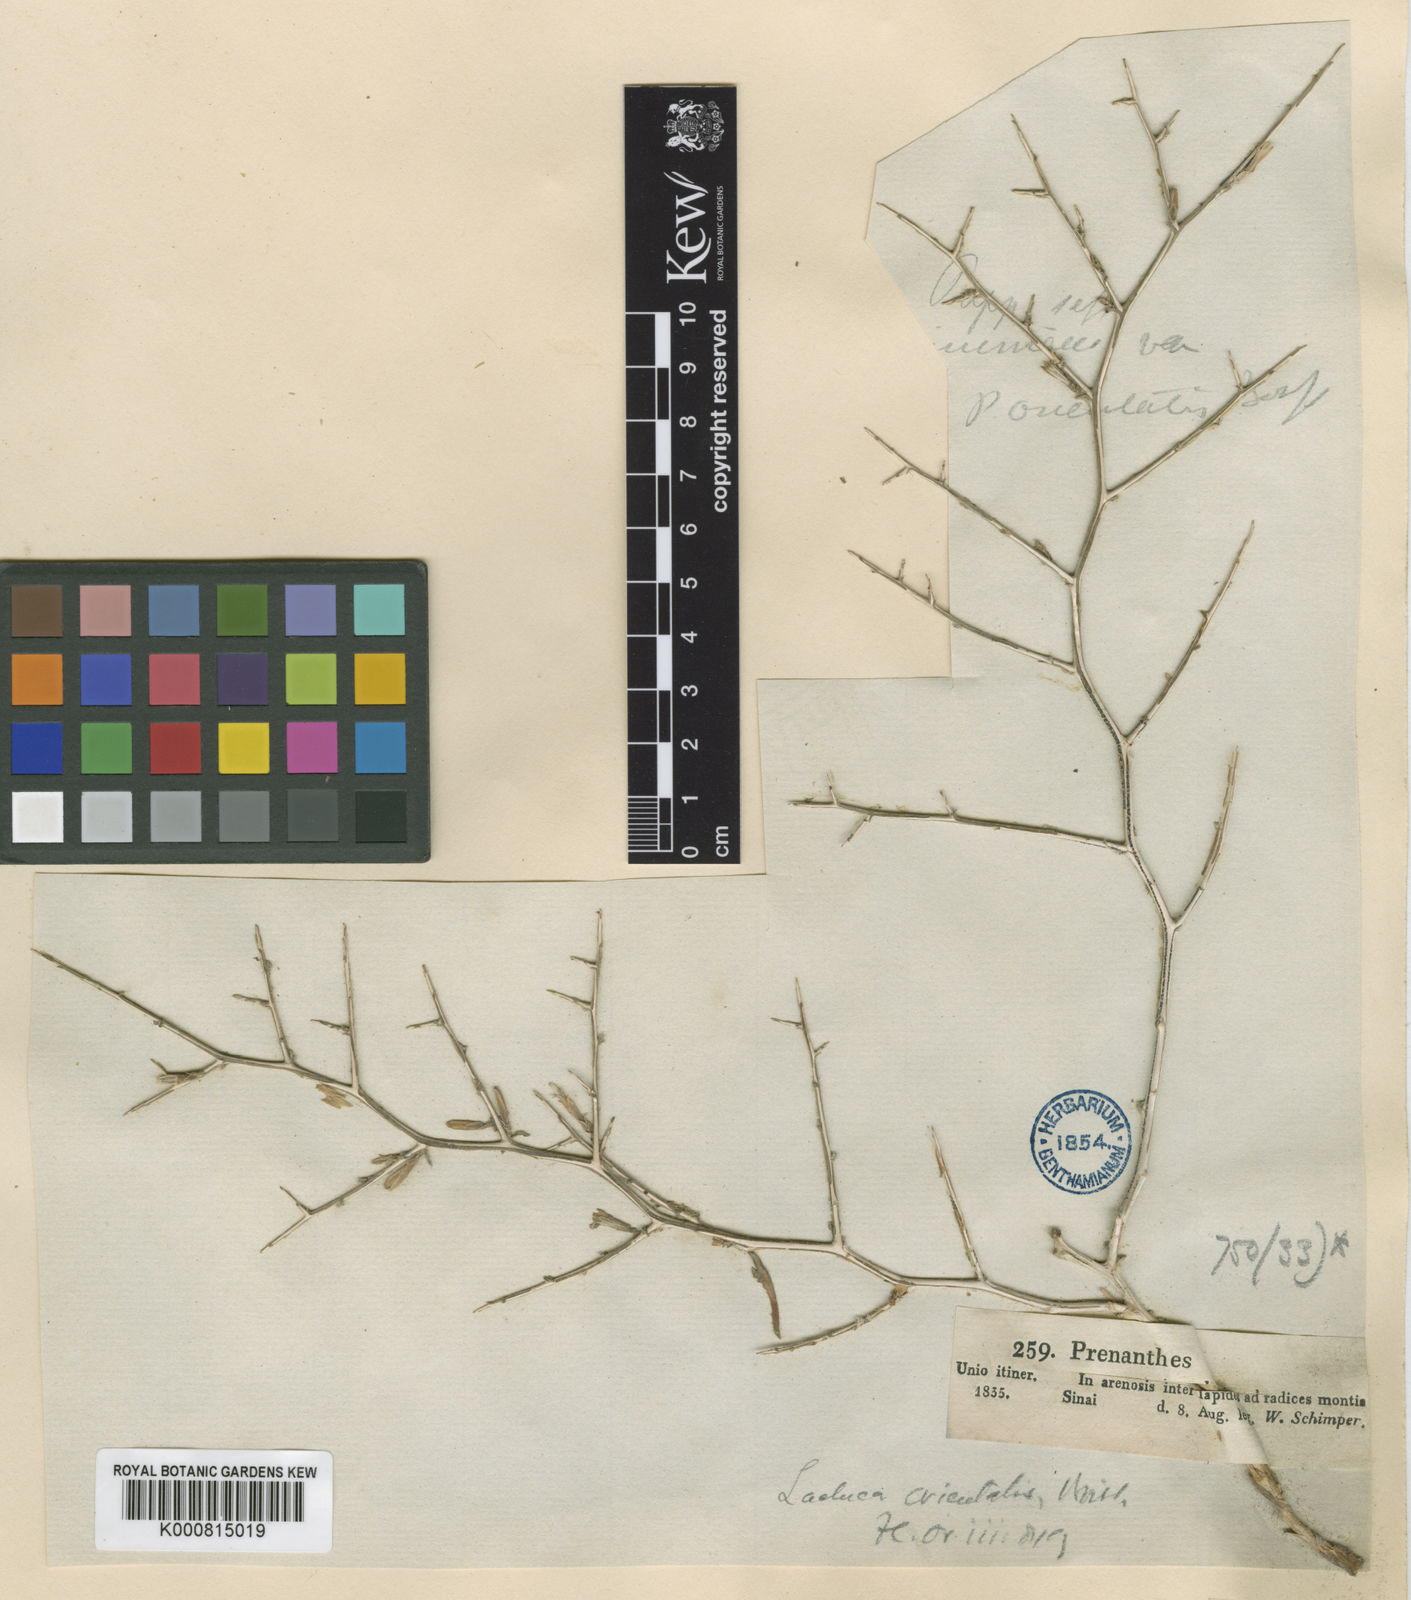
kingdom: Plantae
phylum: Tracheophyta
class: Magnoliopsida
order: Asterales
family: Asteraceae
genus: Lactuca
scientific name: Lactuca orientalis
